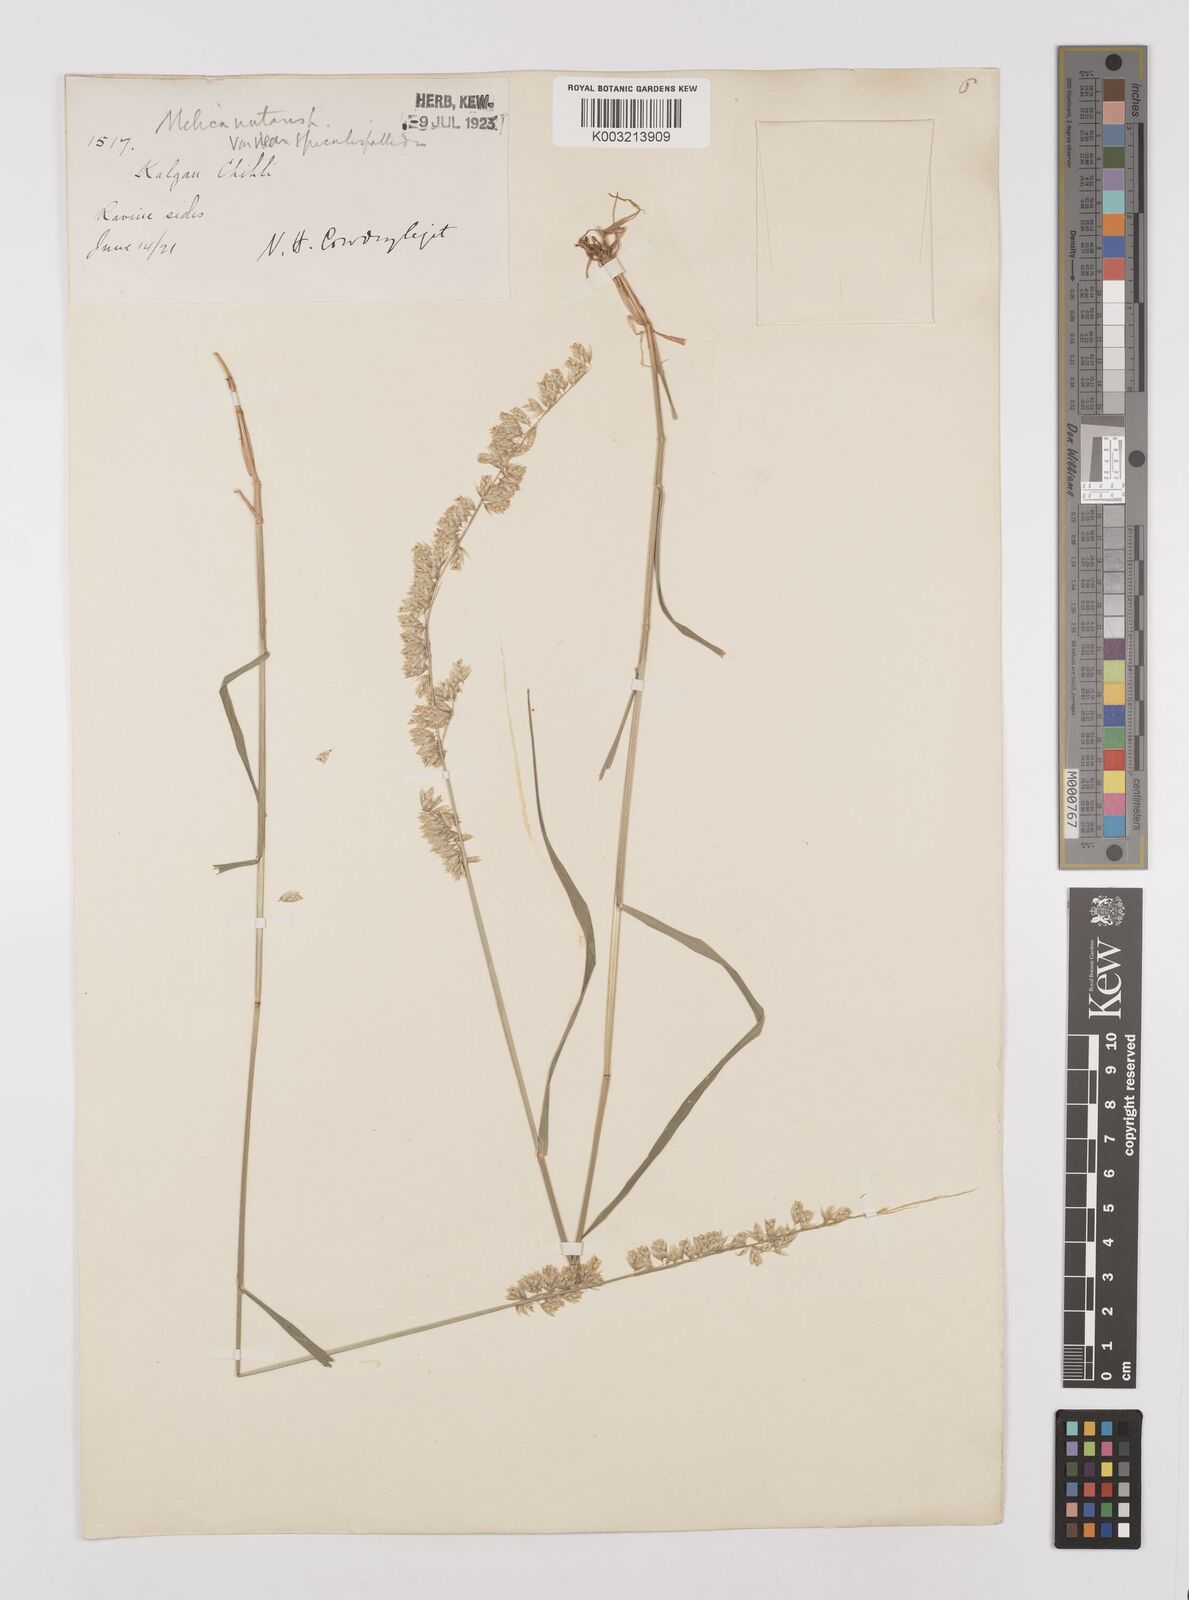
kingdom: Plantae
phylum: Tracheophyta
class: Liliopsida
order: Poales
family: Poaceae
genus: Melica
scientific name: Melica scabrosa
